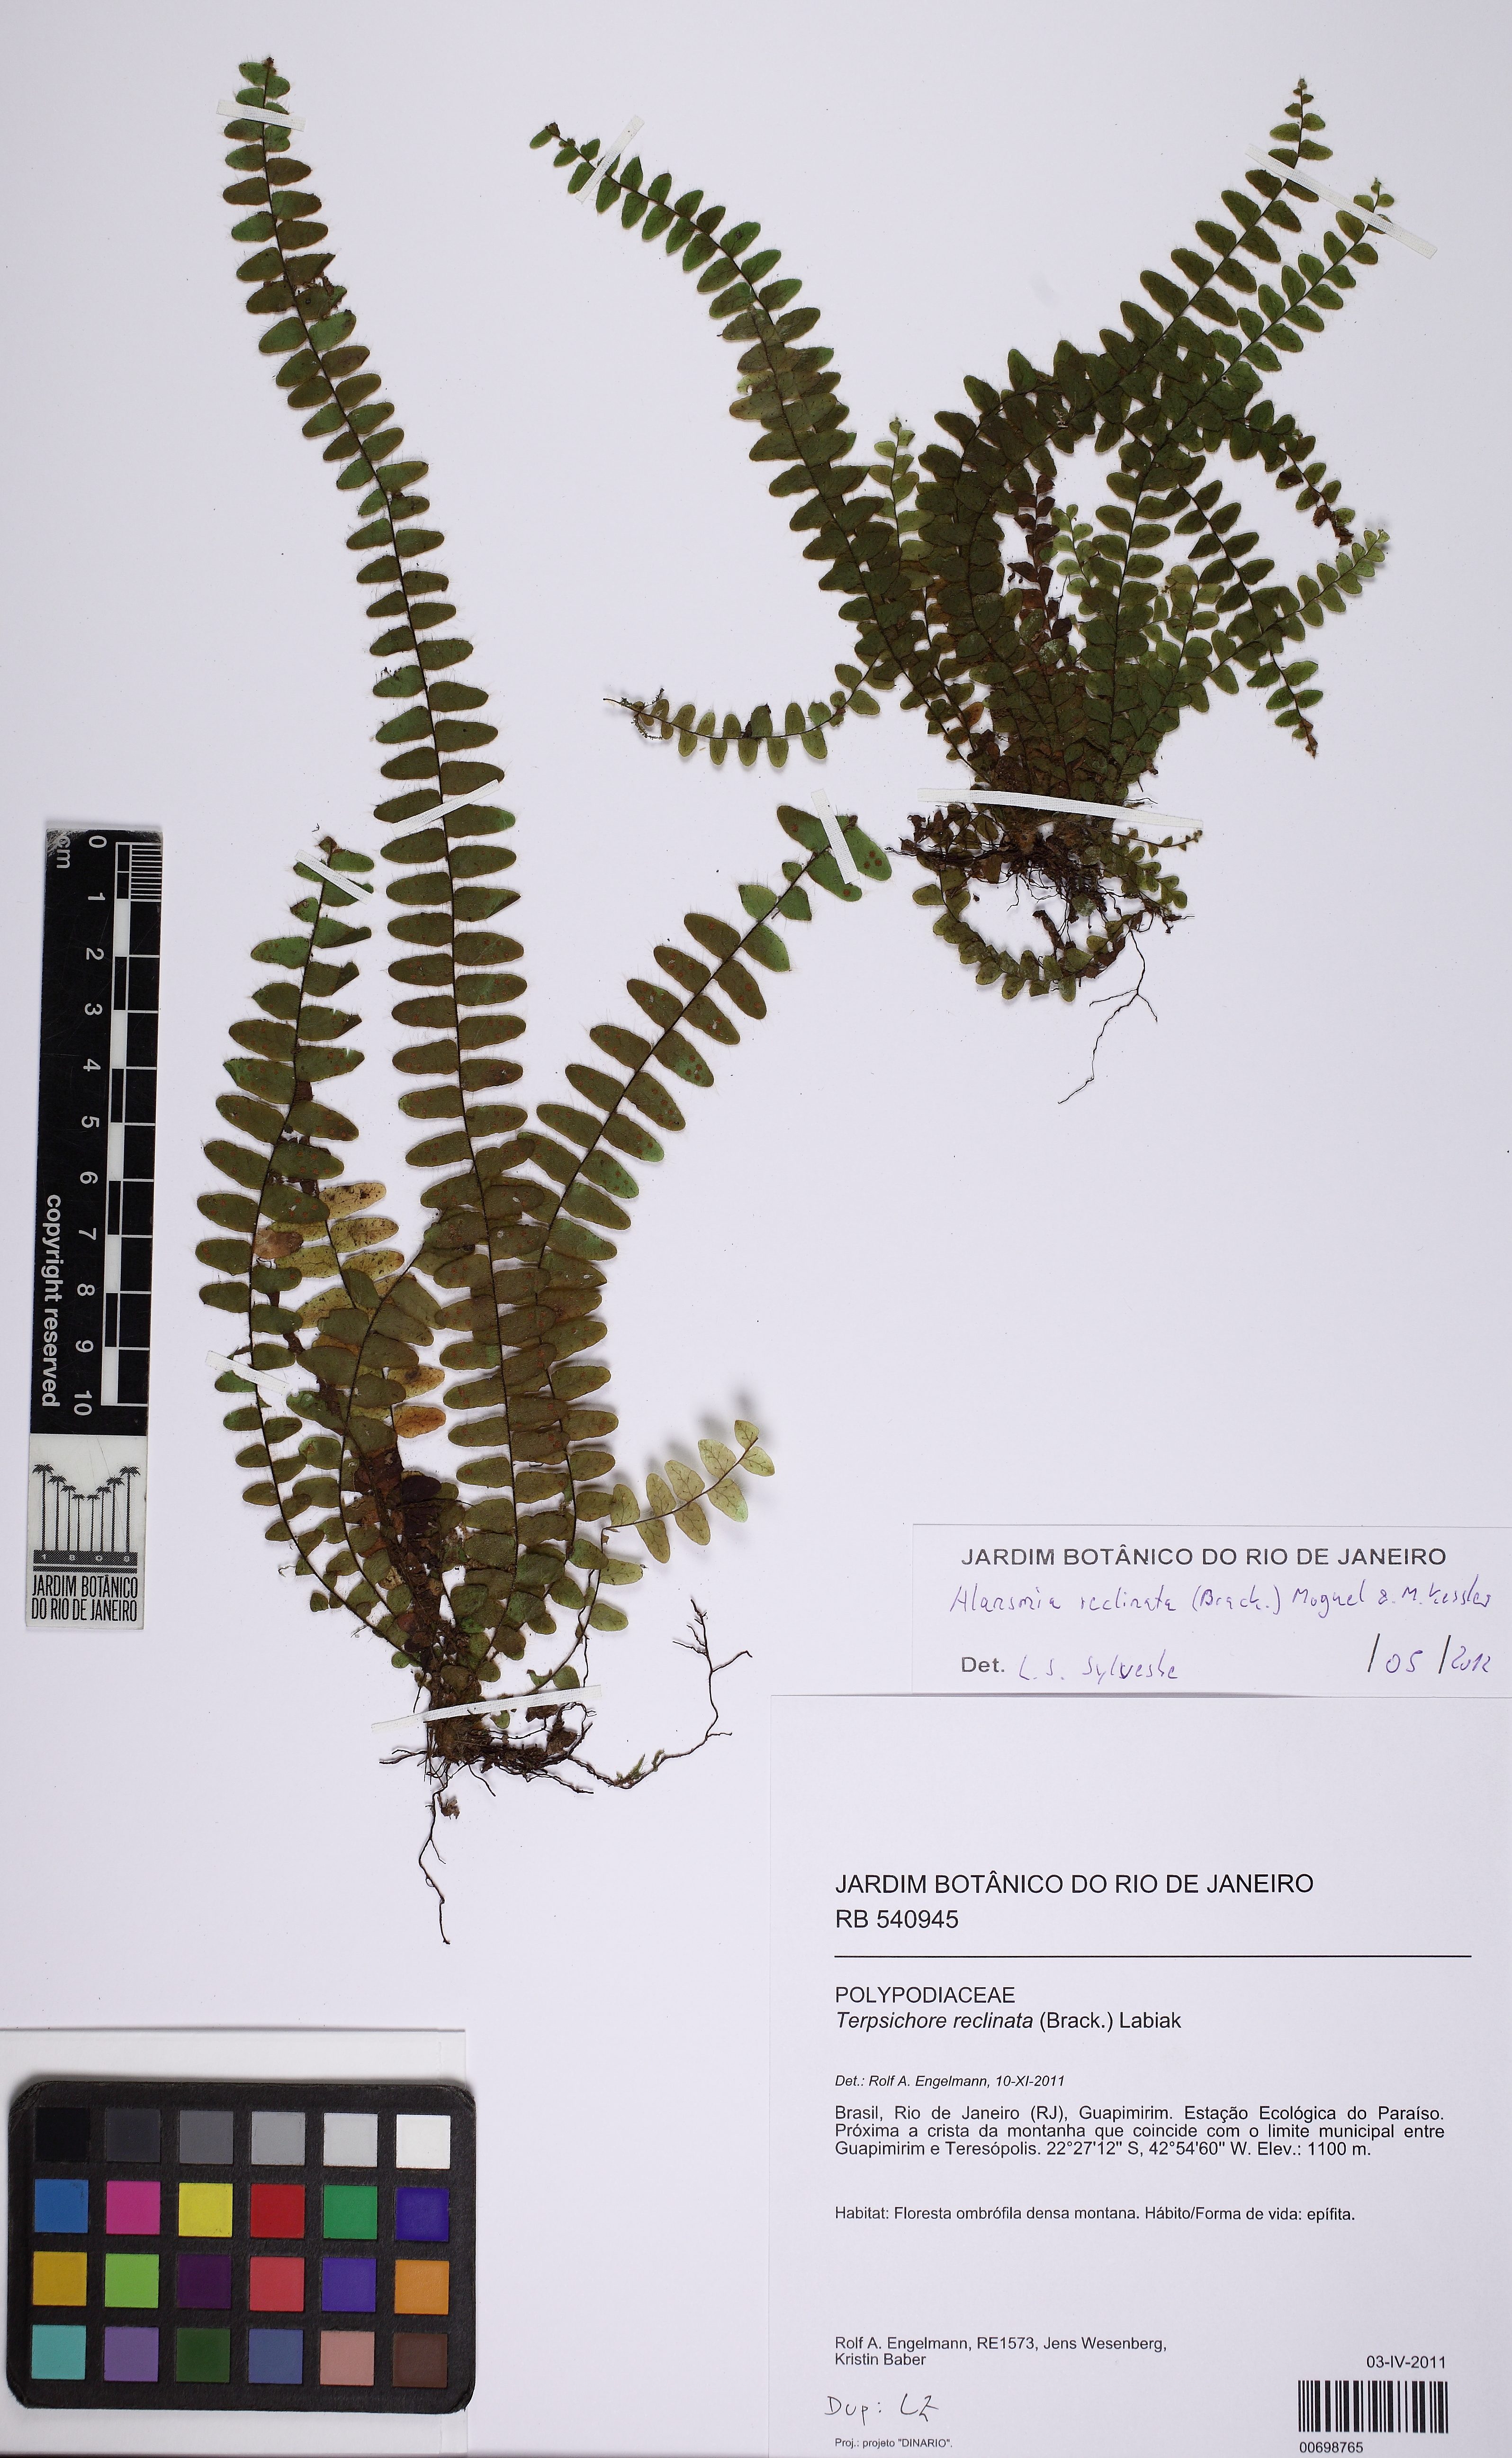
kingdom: Plantae
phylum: Tracheophyta
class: Polypodiopsida
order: Polypodiales
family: Polypodiaceae
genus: Alansmia
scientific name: Alansmia reclinata
